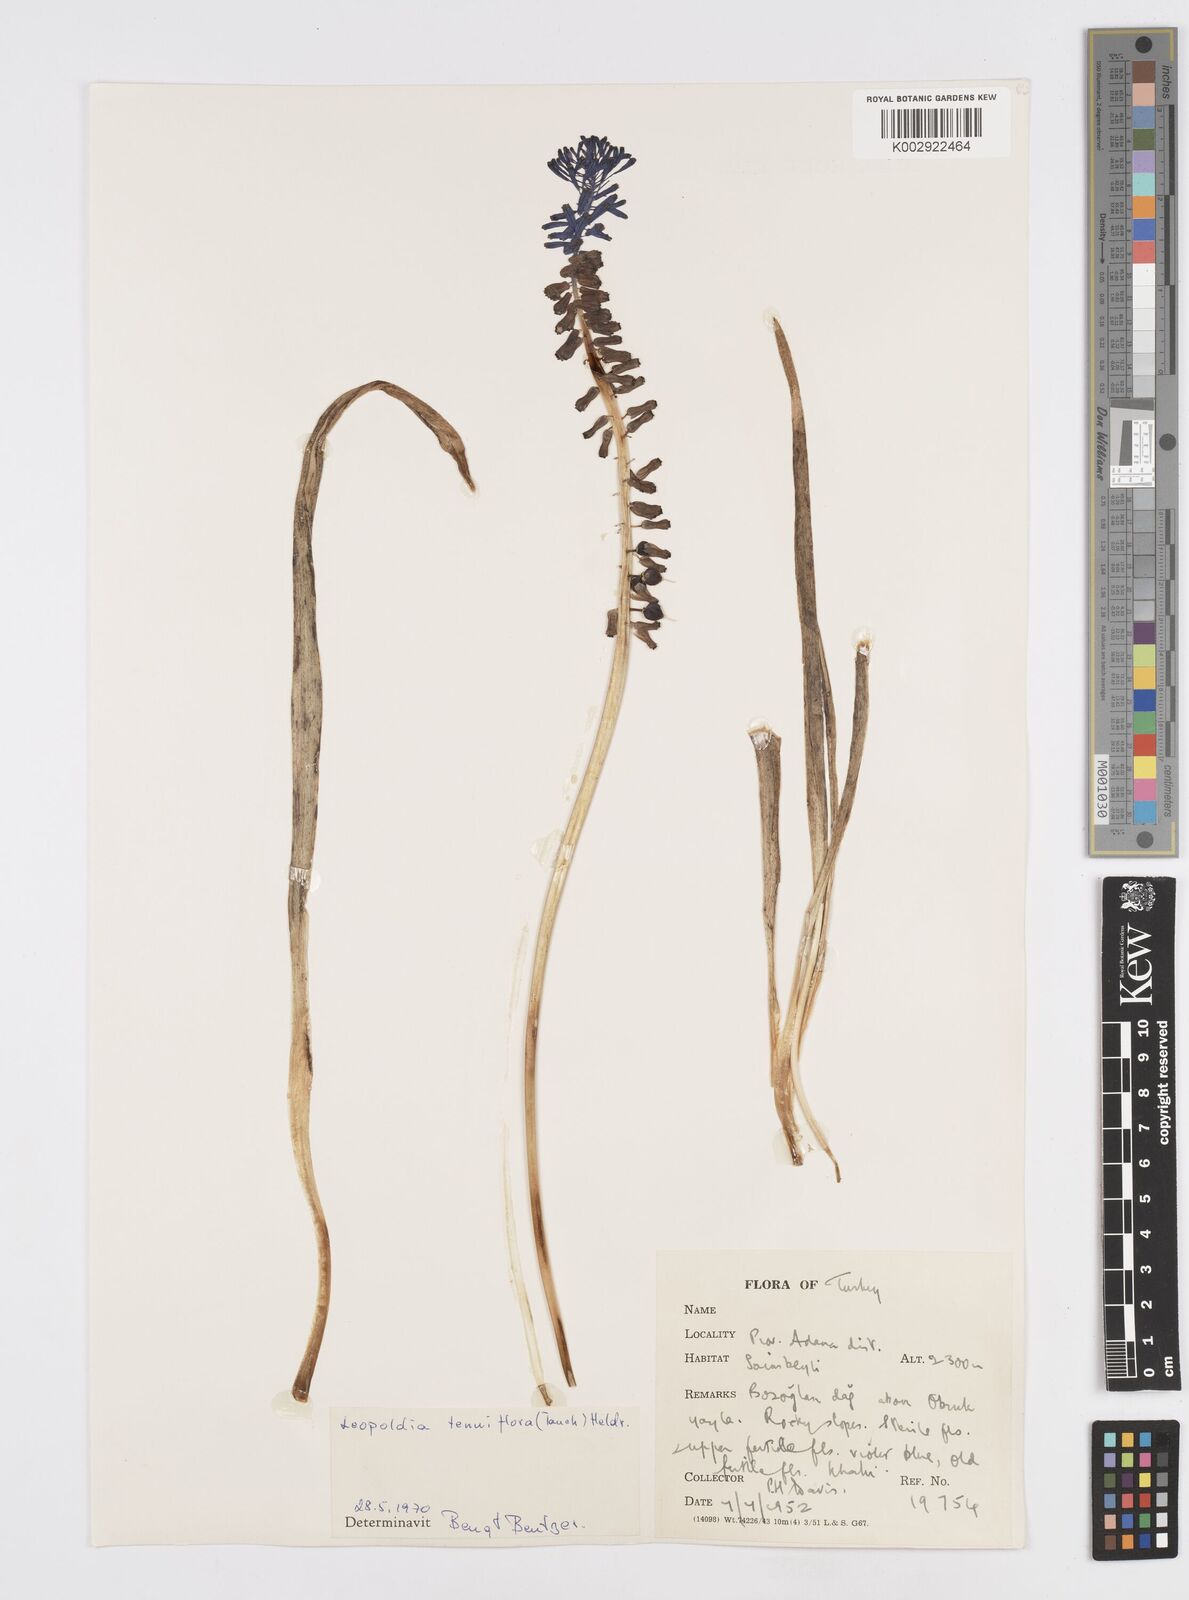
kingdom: Plantae
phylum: Tracheophyta
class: Liliopsida
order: Asparagales
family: Asparagaceae
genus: Muscari
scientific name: Muscari tenuiflorum
